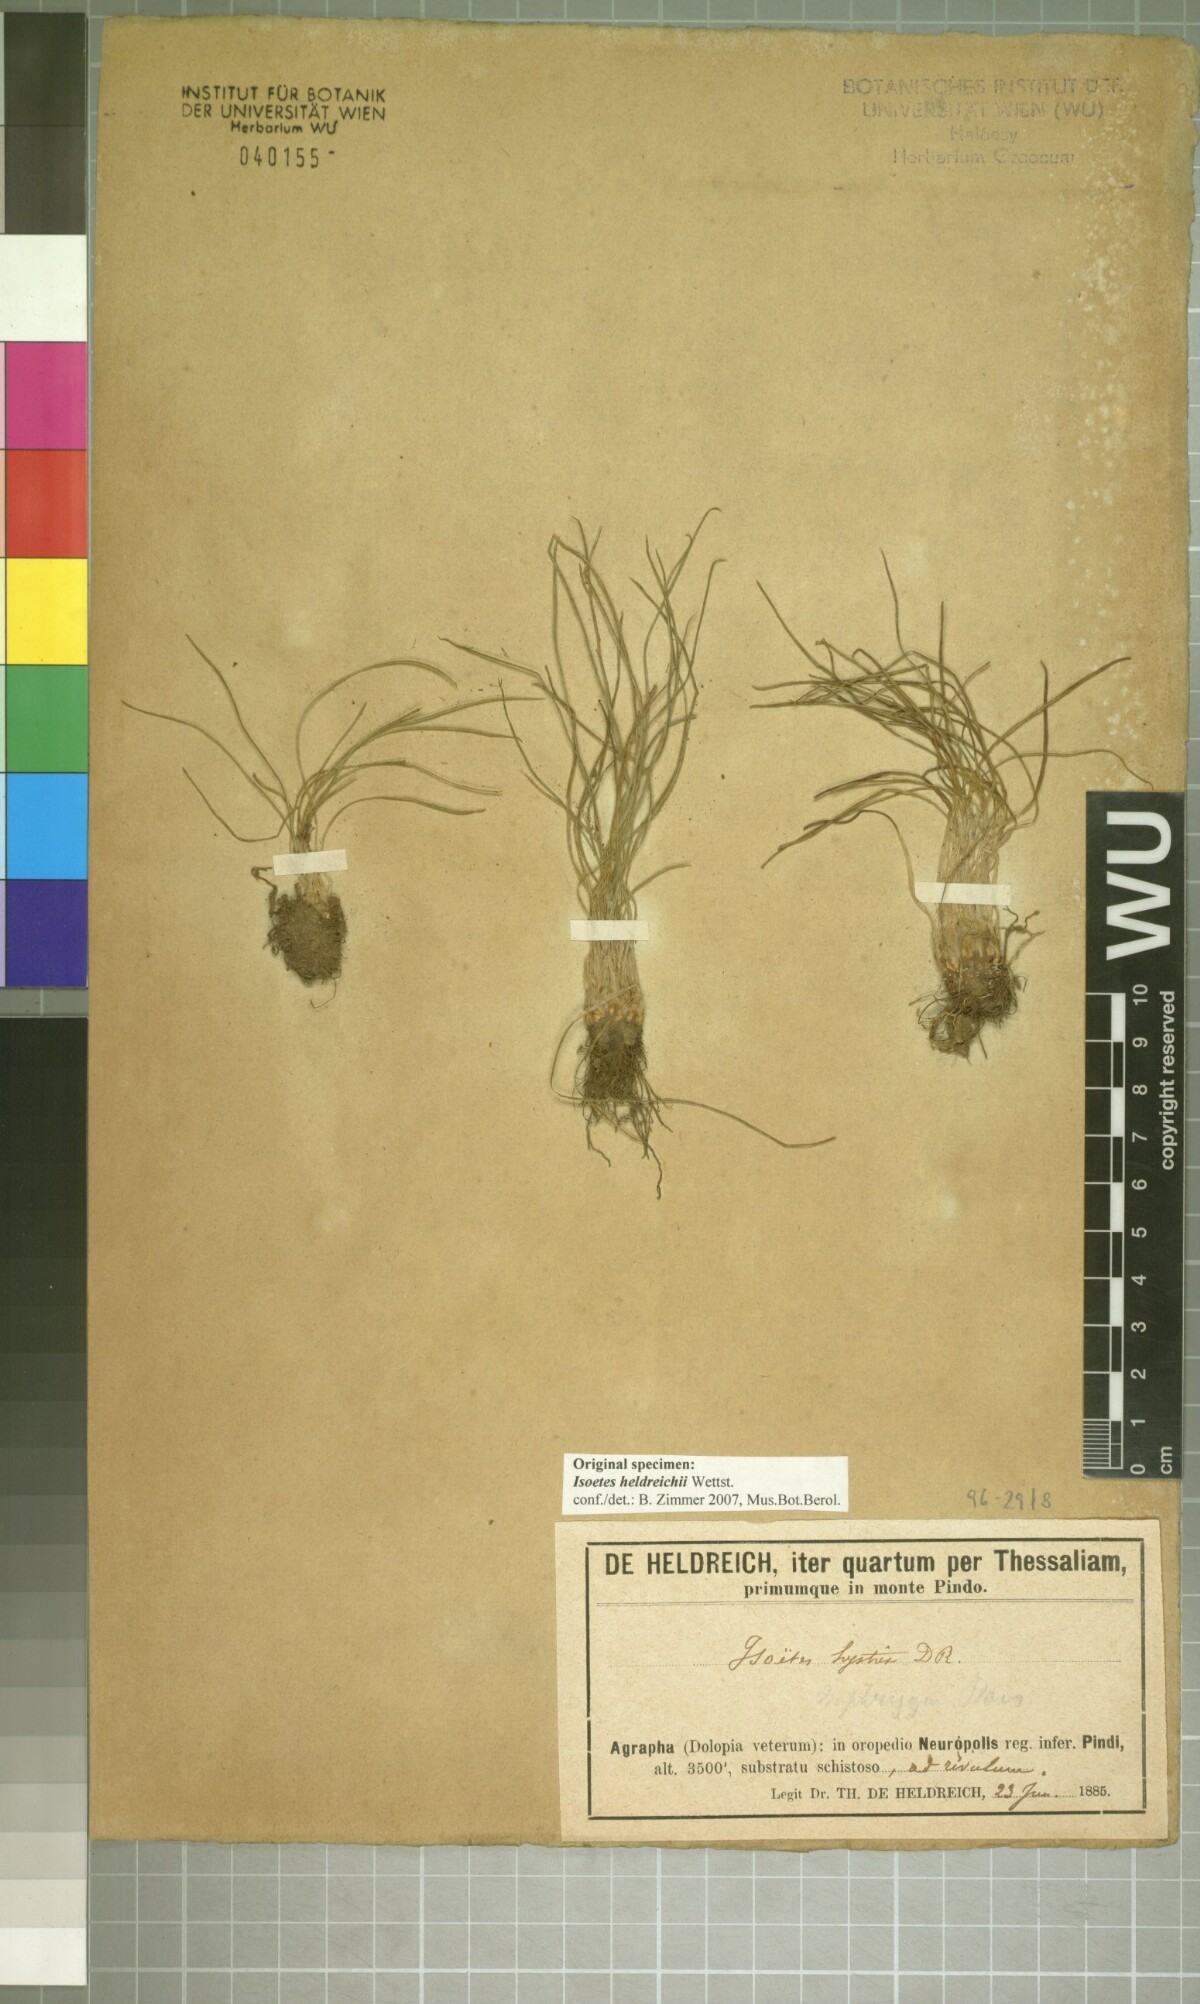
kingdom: Plantae
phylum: Tracheophyta
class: Lycopodiopsida
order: Isoetales
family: Isoetaceae
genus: Isoetes
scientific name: Isoetes heldreichii
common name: Pindus quillwort
